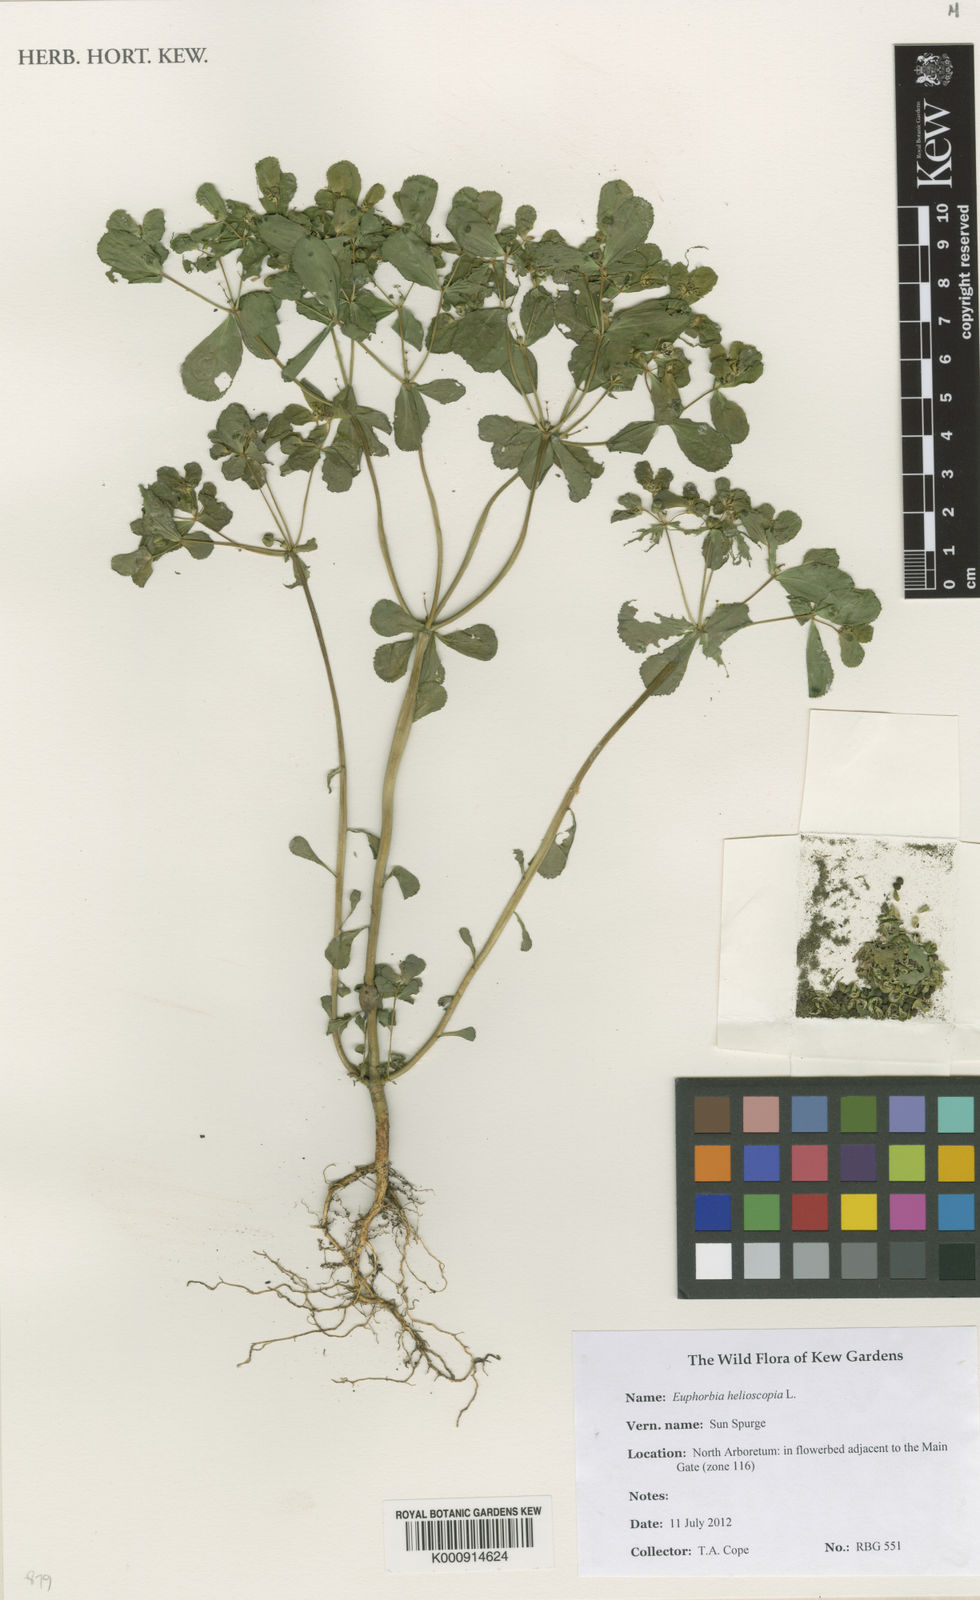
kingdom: Plantae
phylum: Tracheophyta
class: Magnoliopsida
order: Malpighiales
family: Euphorbiaceae
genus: Euphorbia
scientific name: Euphorbia helioscopia
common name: Sun spurge
